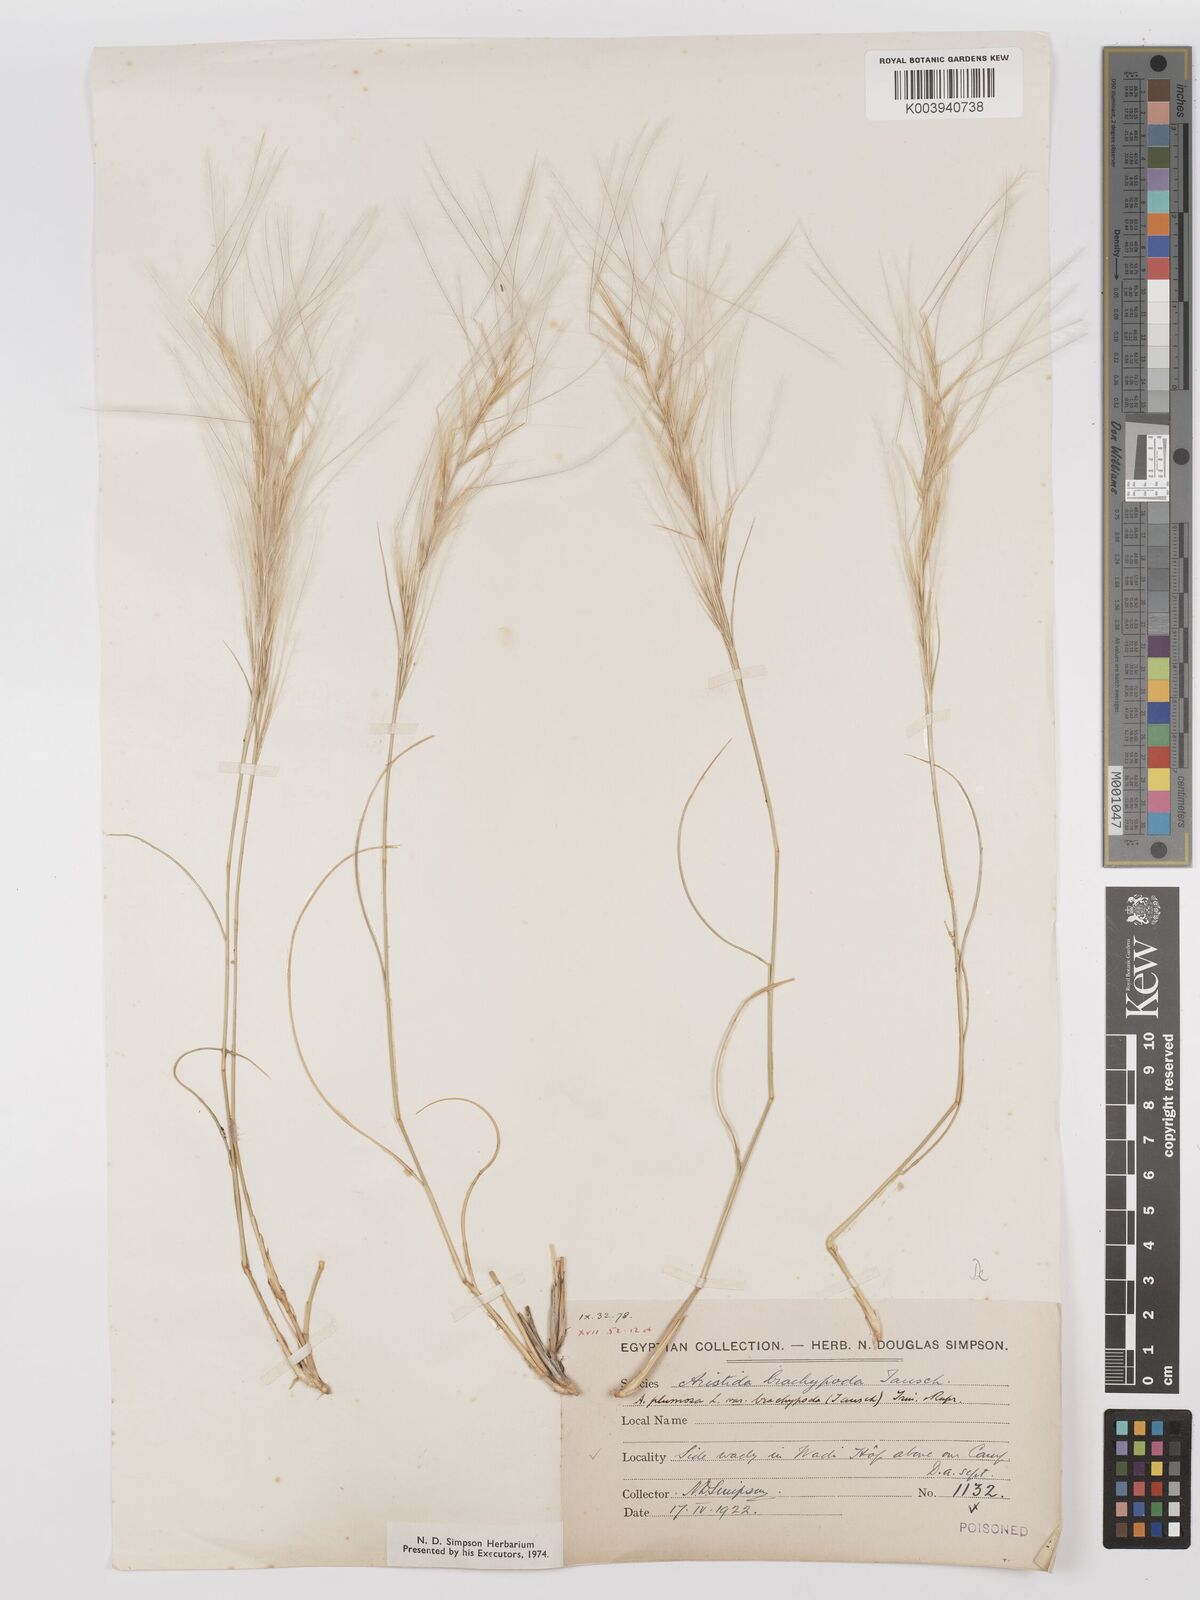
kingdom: Plantae
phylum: Tracheophyta
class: Liliopsida
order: Poales
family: Poaceae
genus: Stipagrostis
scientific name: Stipagrostis plumosa
